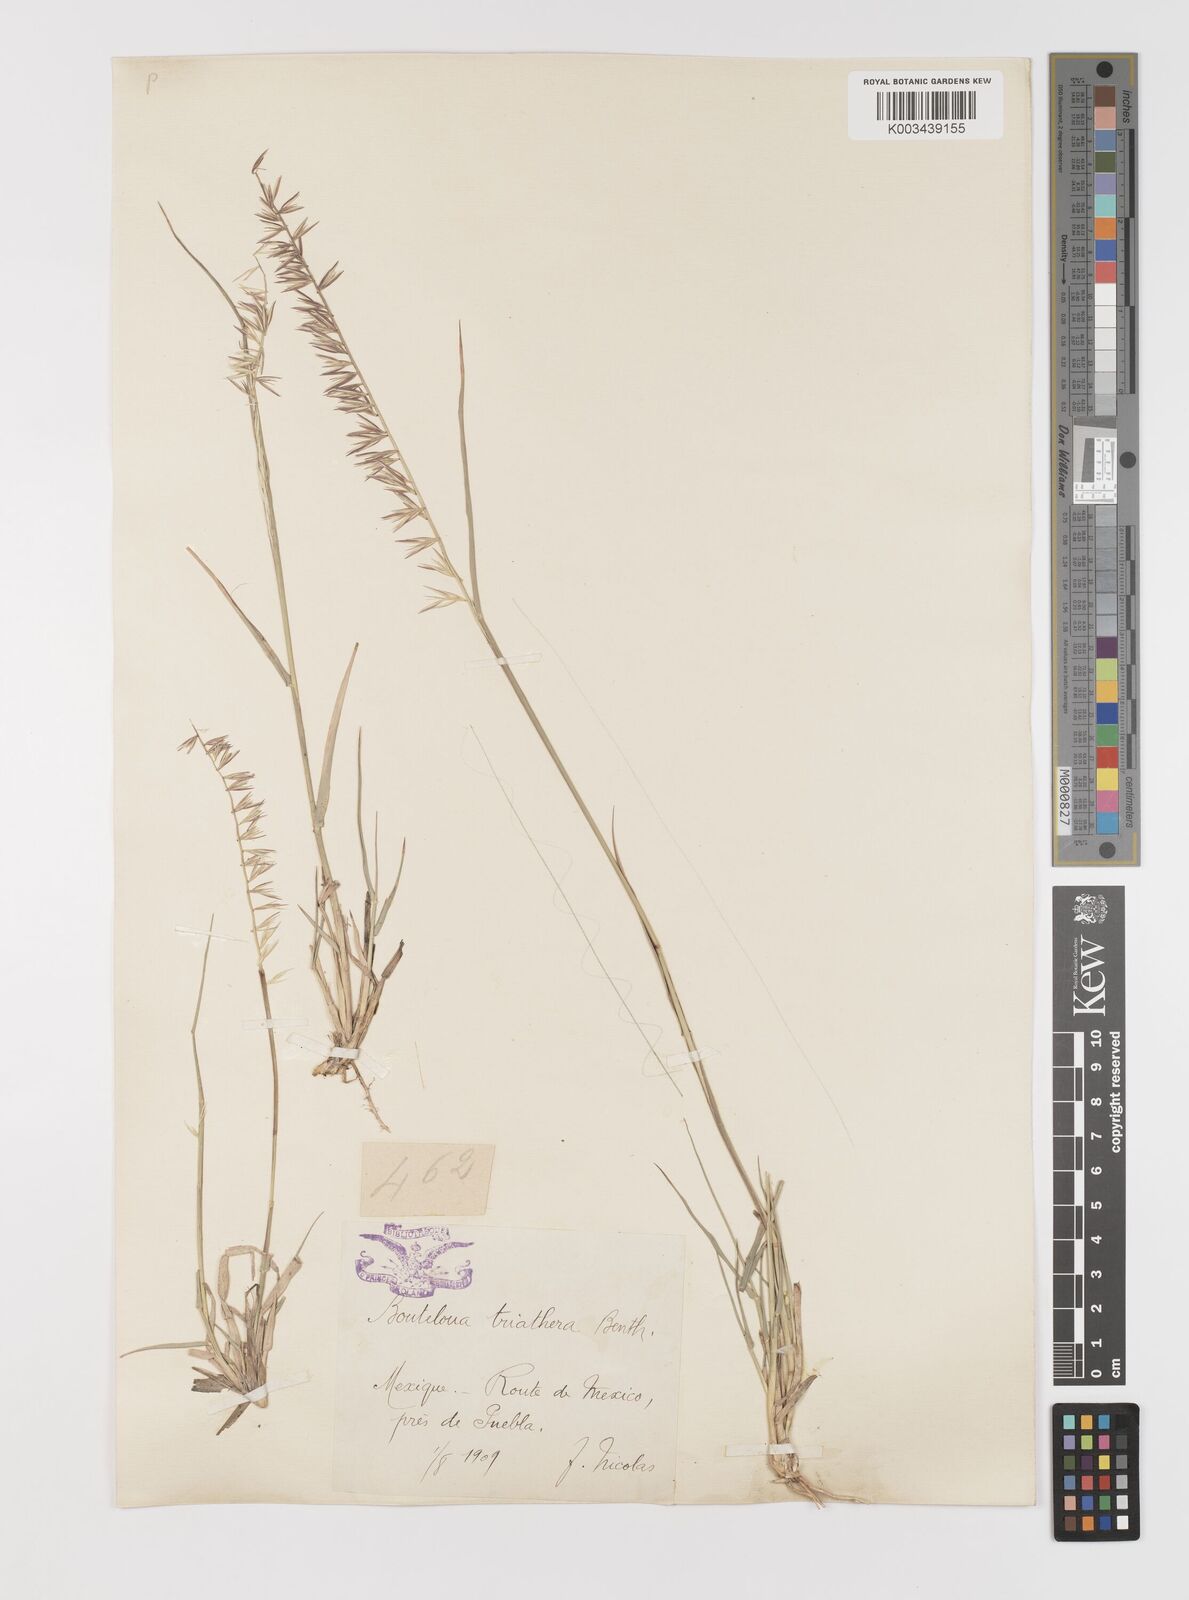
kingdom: Plantae
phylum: Tracheophyta
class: Liliopsida
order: Poales
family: Poaceae
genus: Bouteloua
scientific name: Bouteloua curtipendula
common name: Side-oats grama
